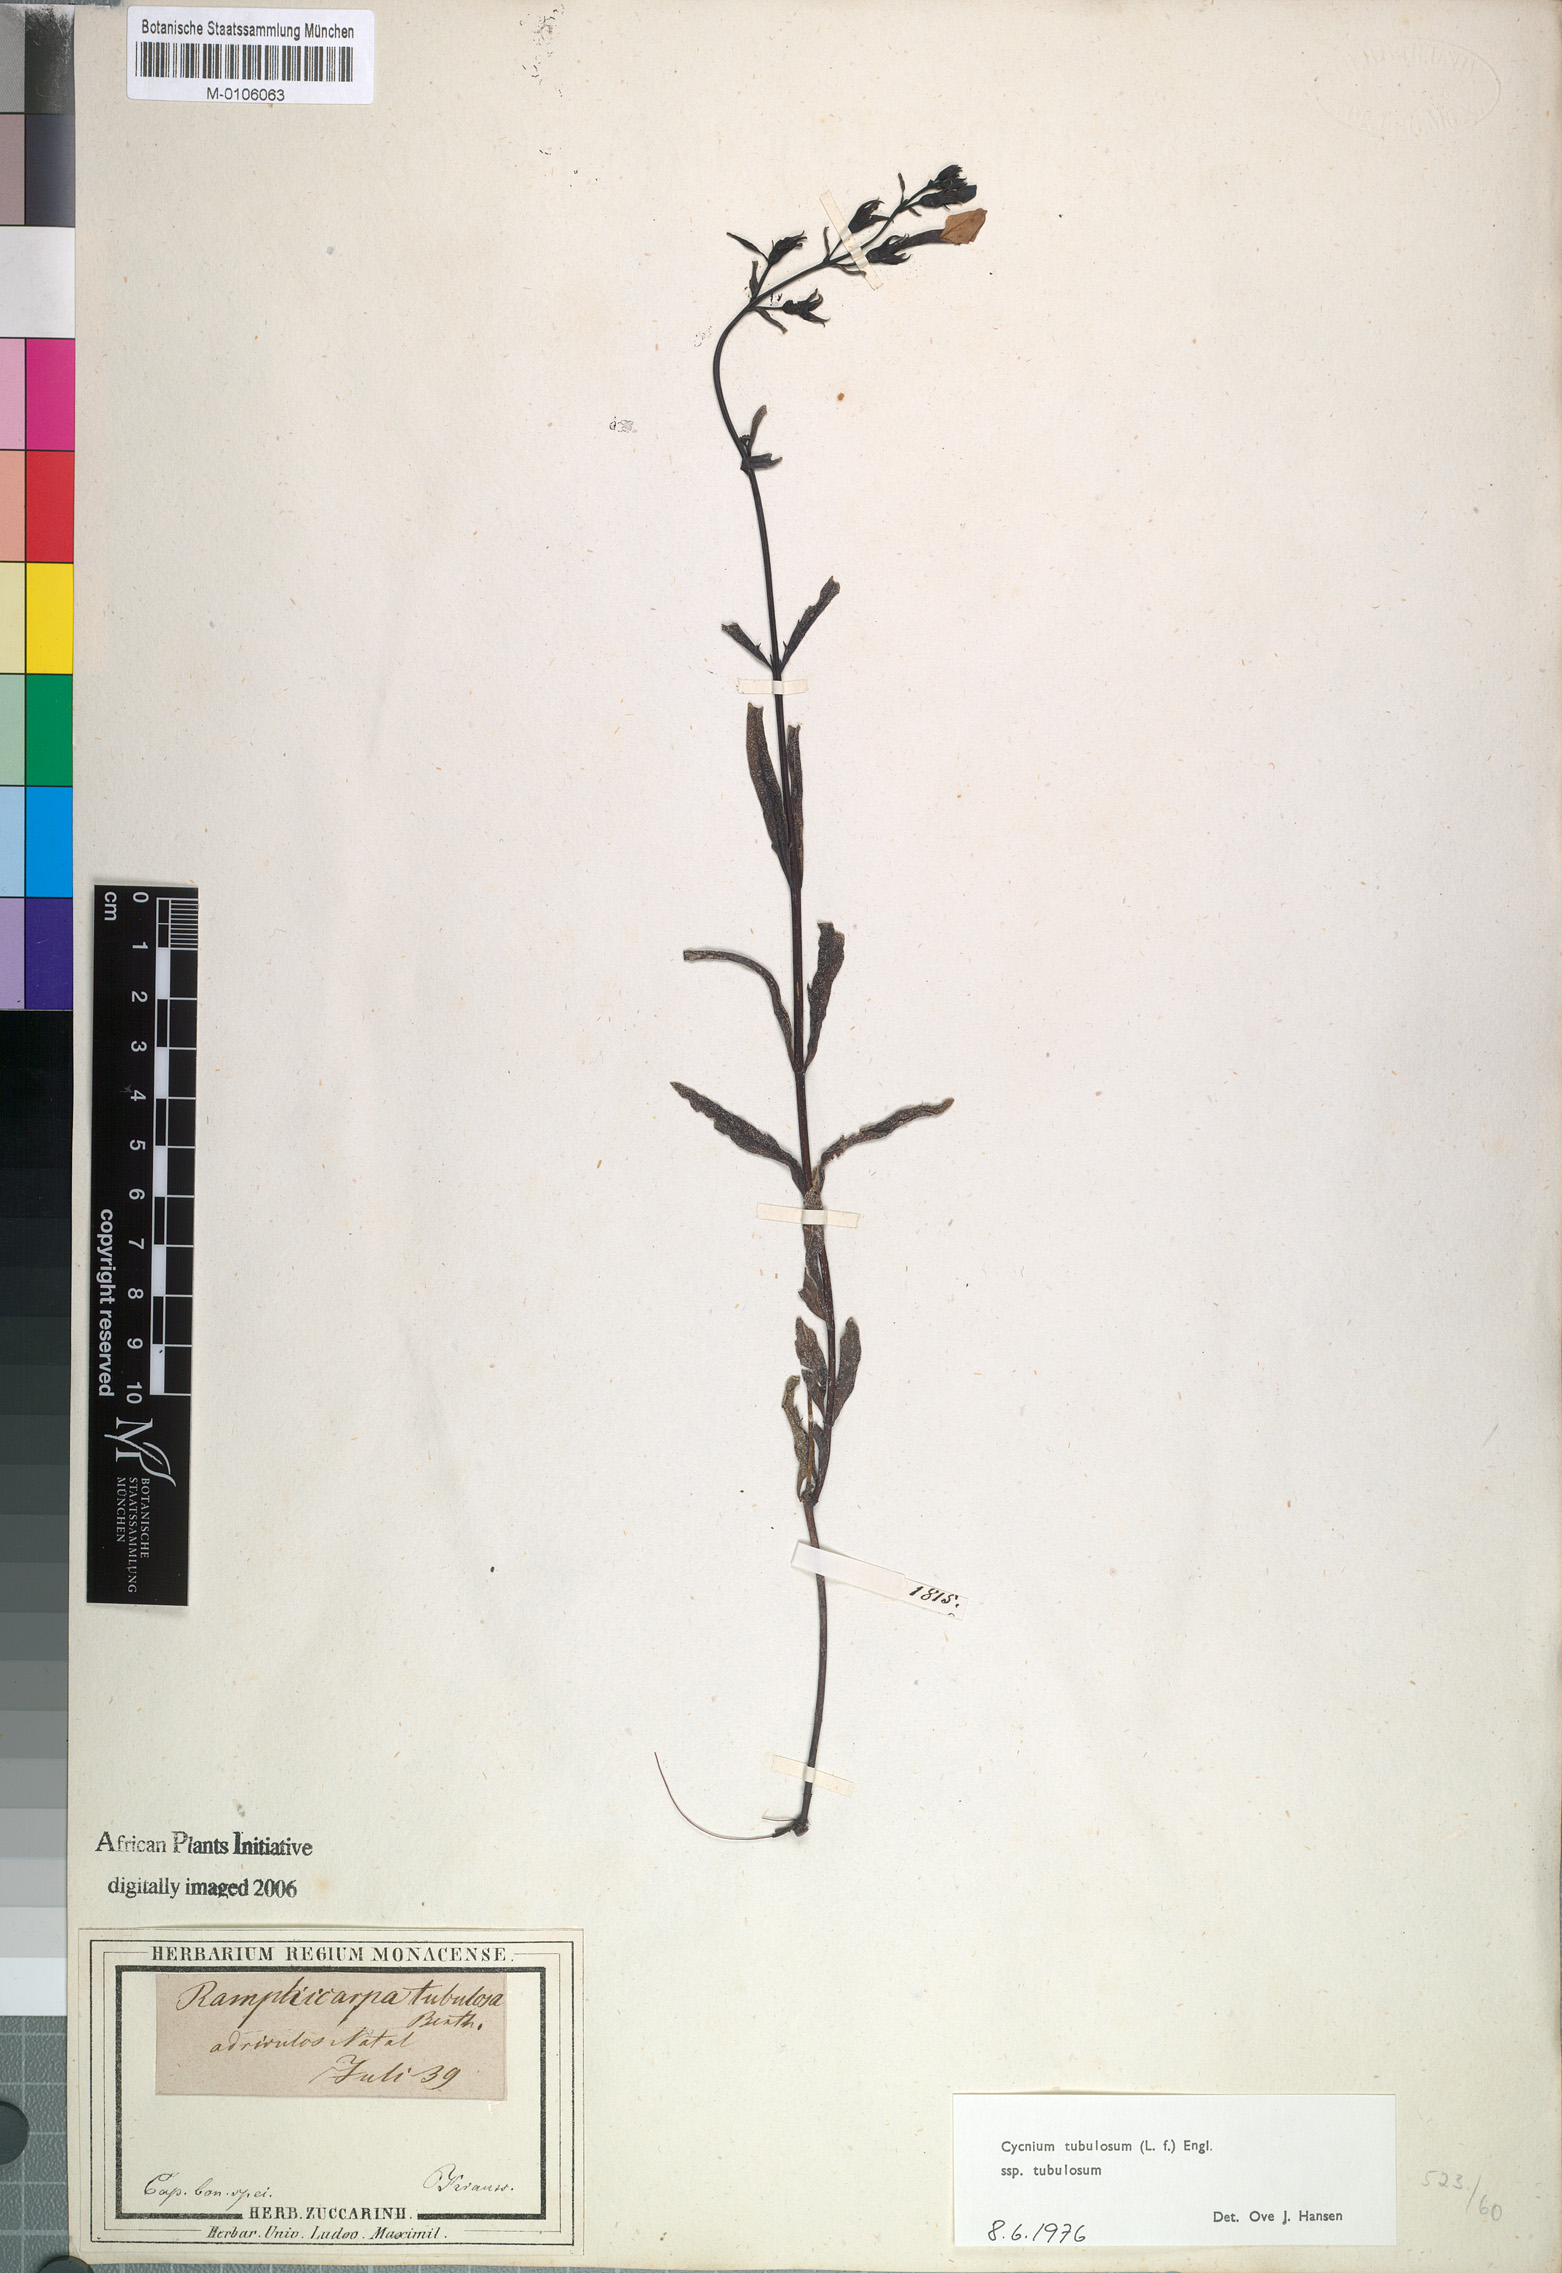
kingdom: Plantae
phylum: Tracheophyta
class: Magnoliopsida
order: Lamiales
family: Orobanchaceae
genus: Cycnium
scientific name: Cycnium tubulosum
